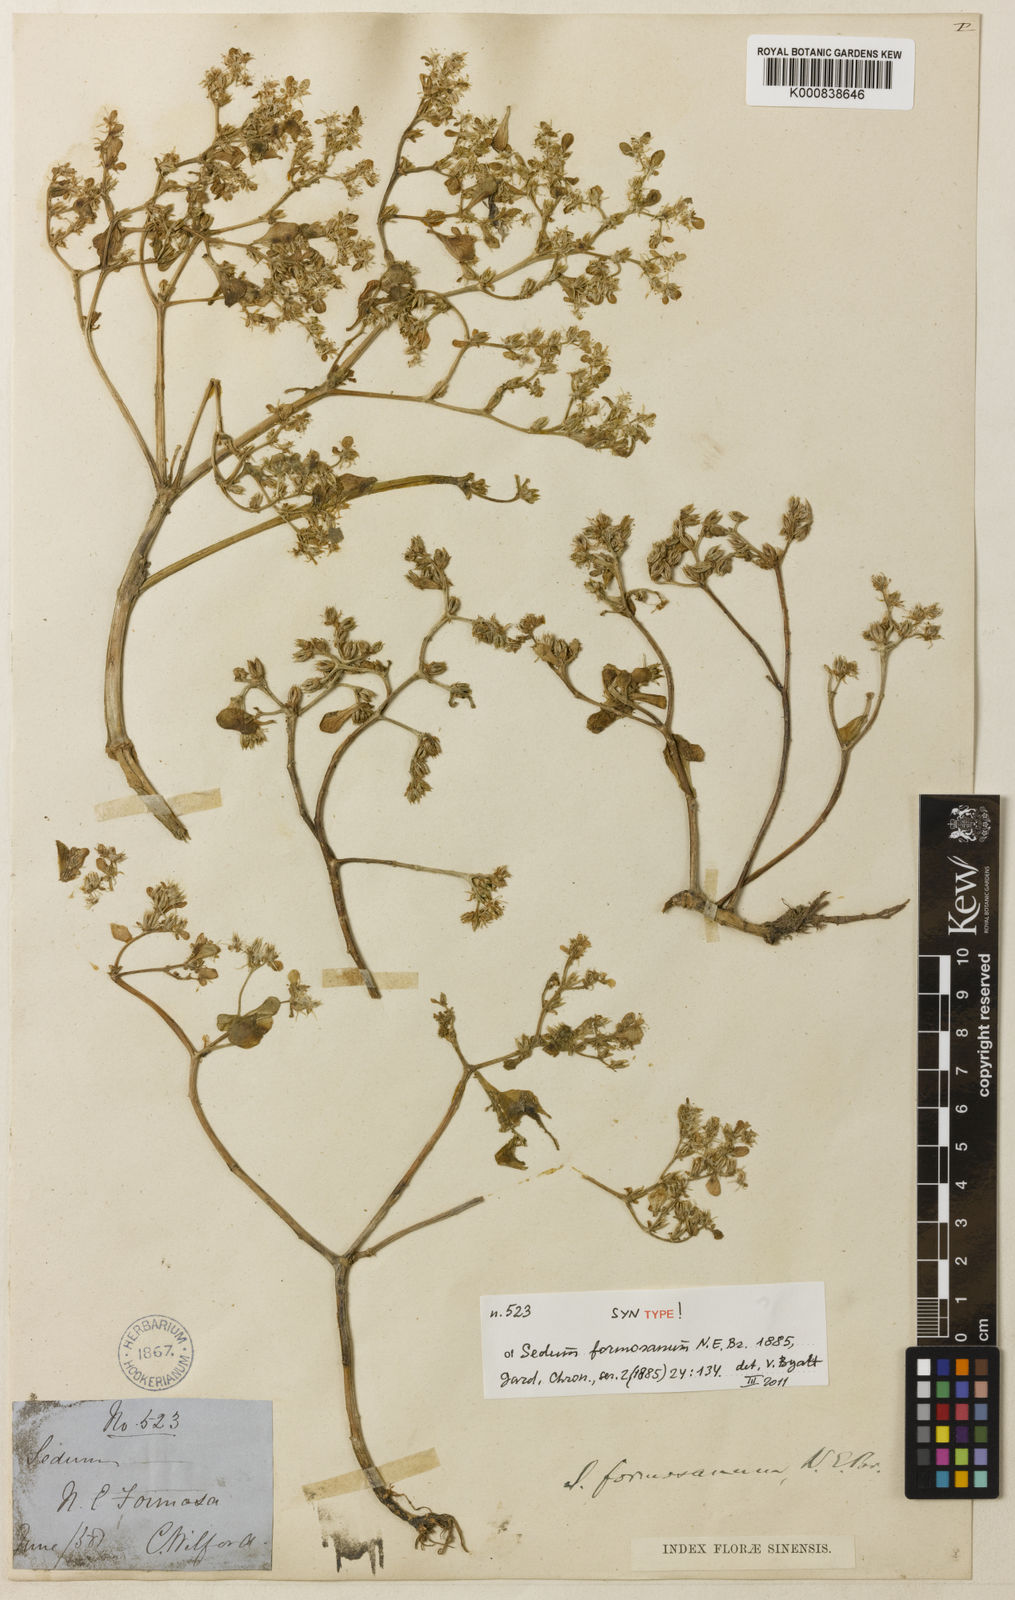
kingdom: Plantae
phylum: Tracheophyta
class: Magnoliopsida
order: Saxifragales
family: Crassulaceae
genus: Sedum
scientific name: Sedum formosanum
